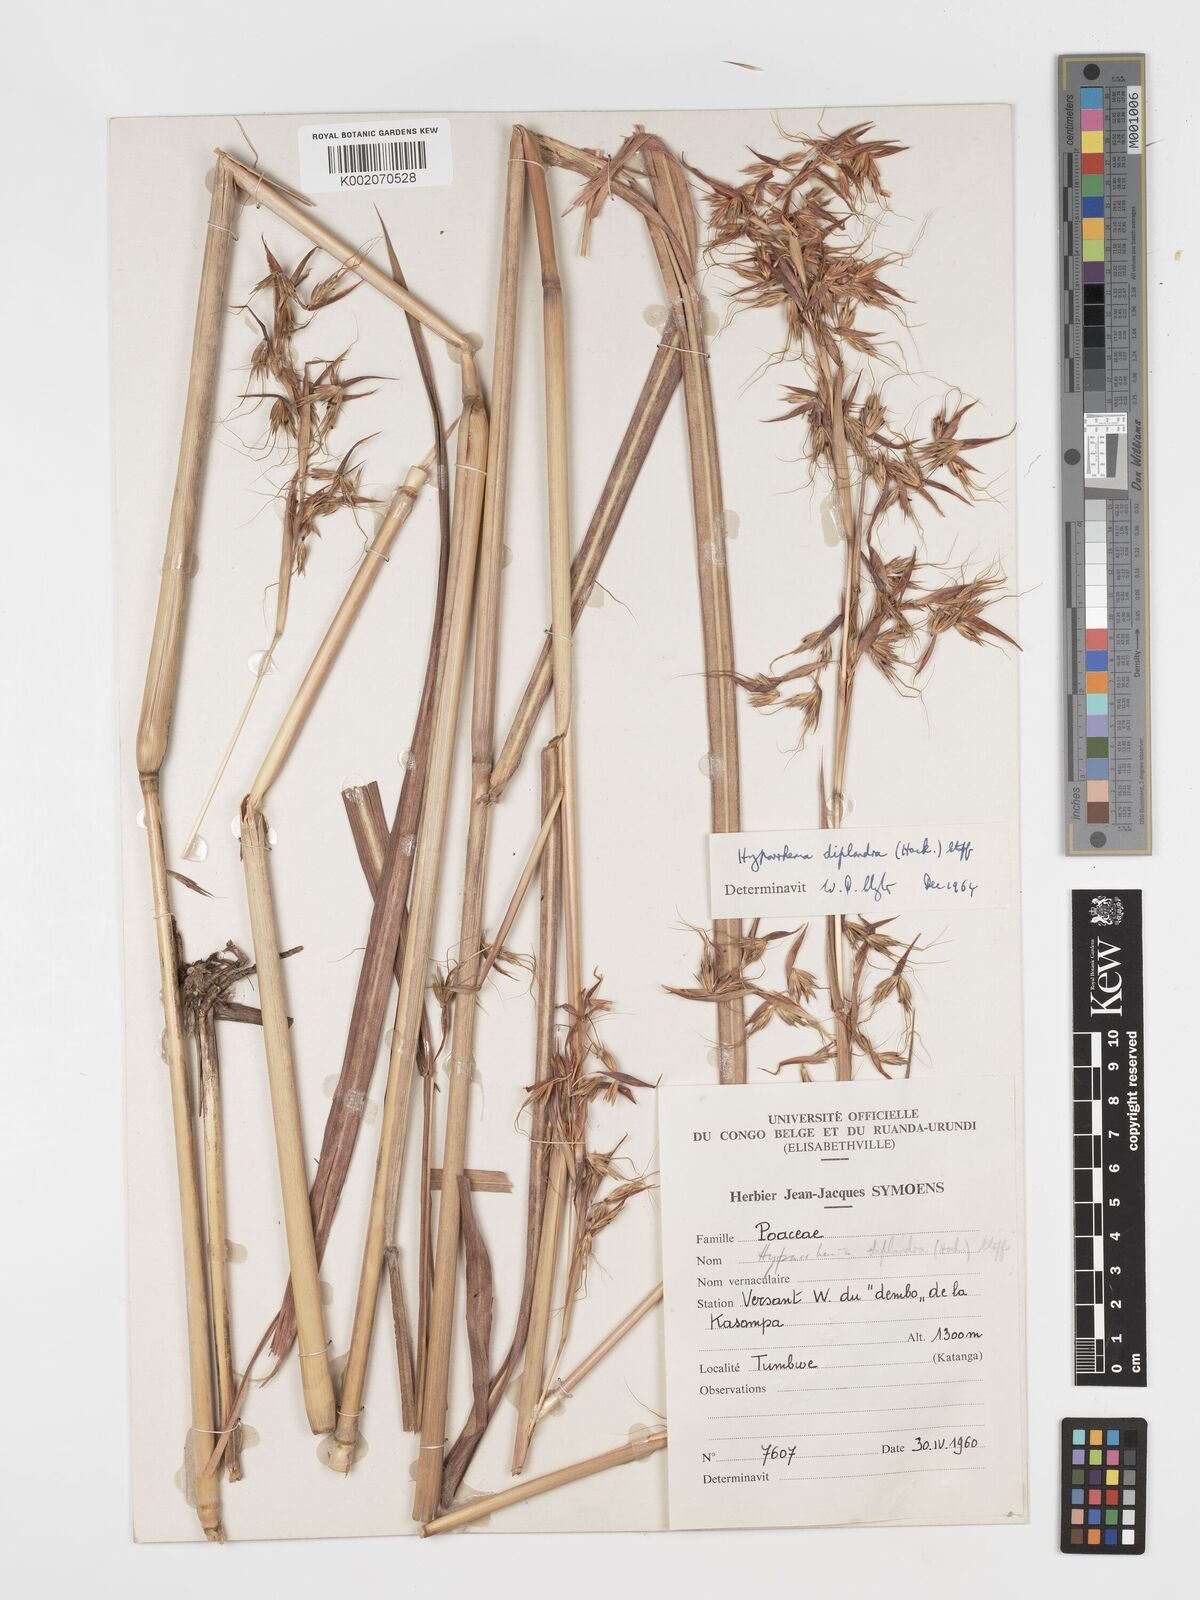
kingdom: Plantae
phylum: Tracheophyta
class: Liliopsida
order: Poales
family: Poaceae
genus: Hyparrhenia
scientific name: Hyparrhenia diplandra
